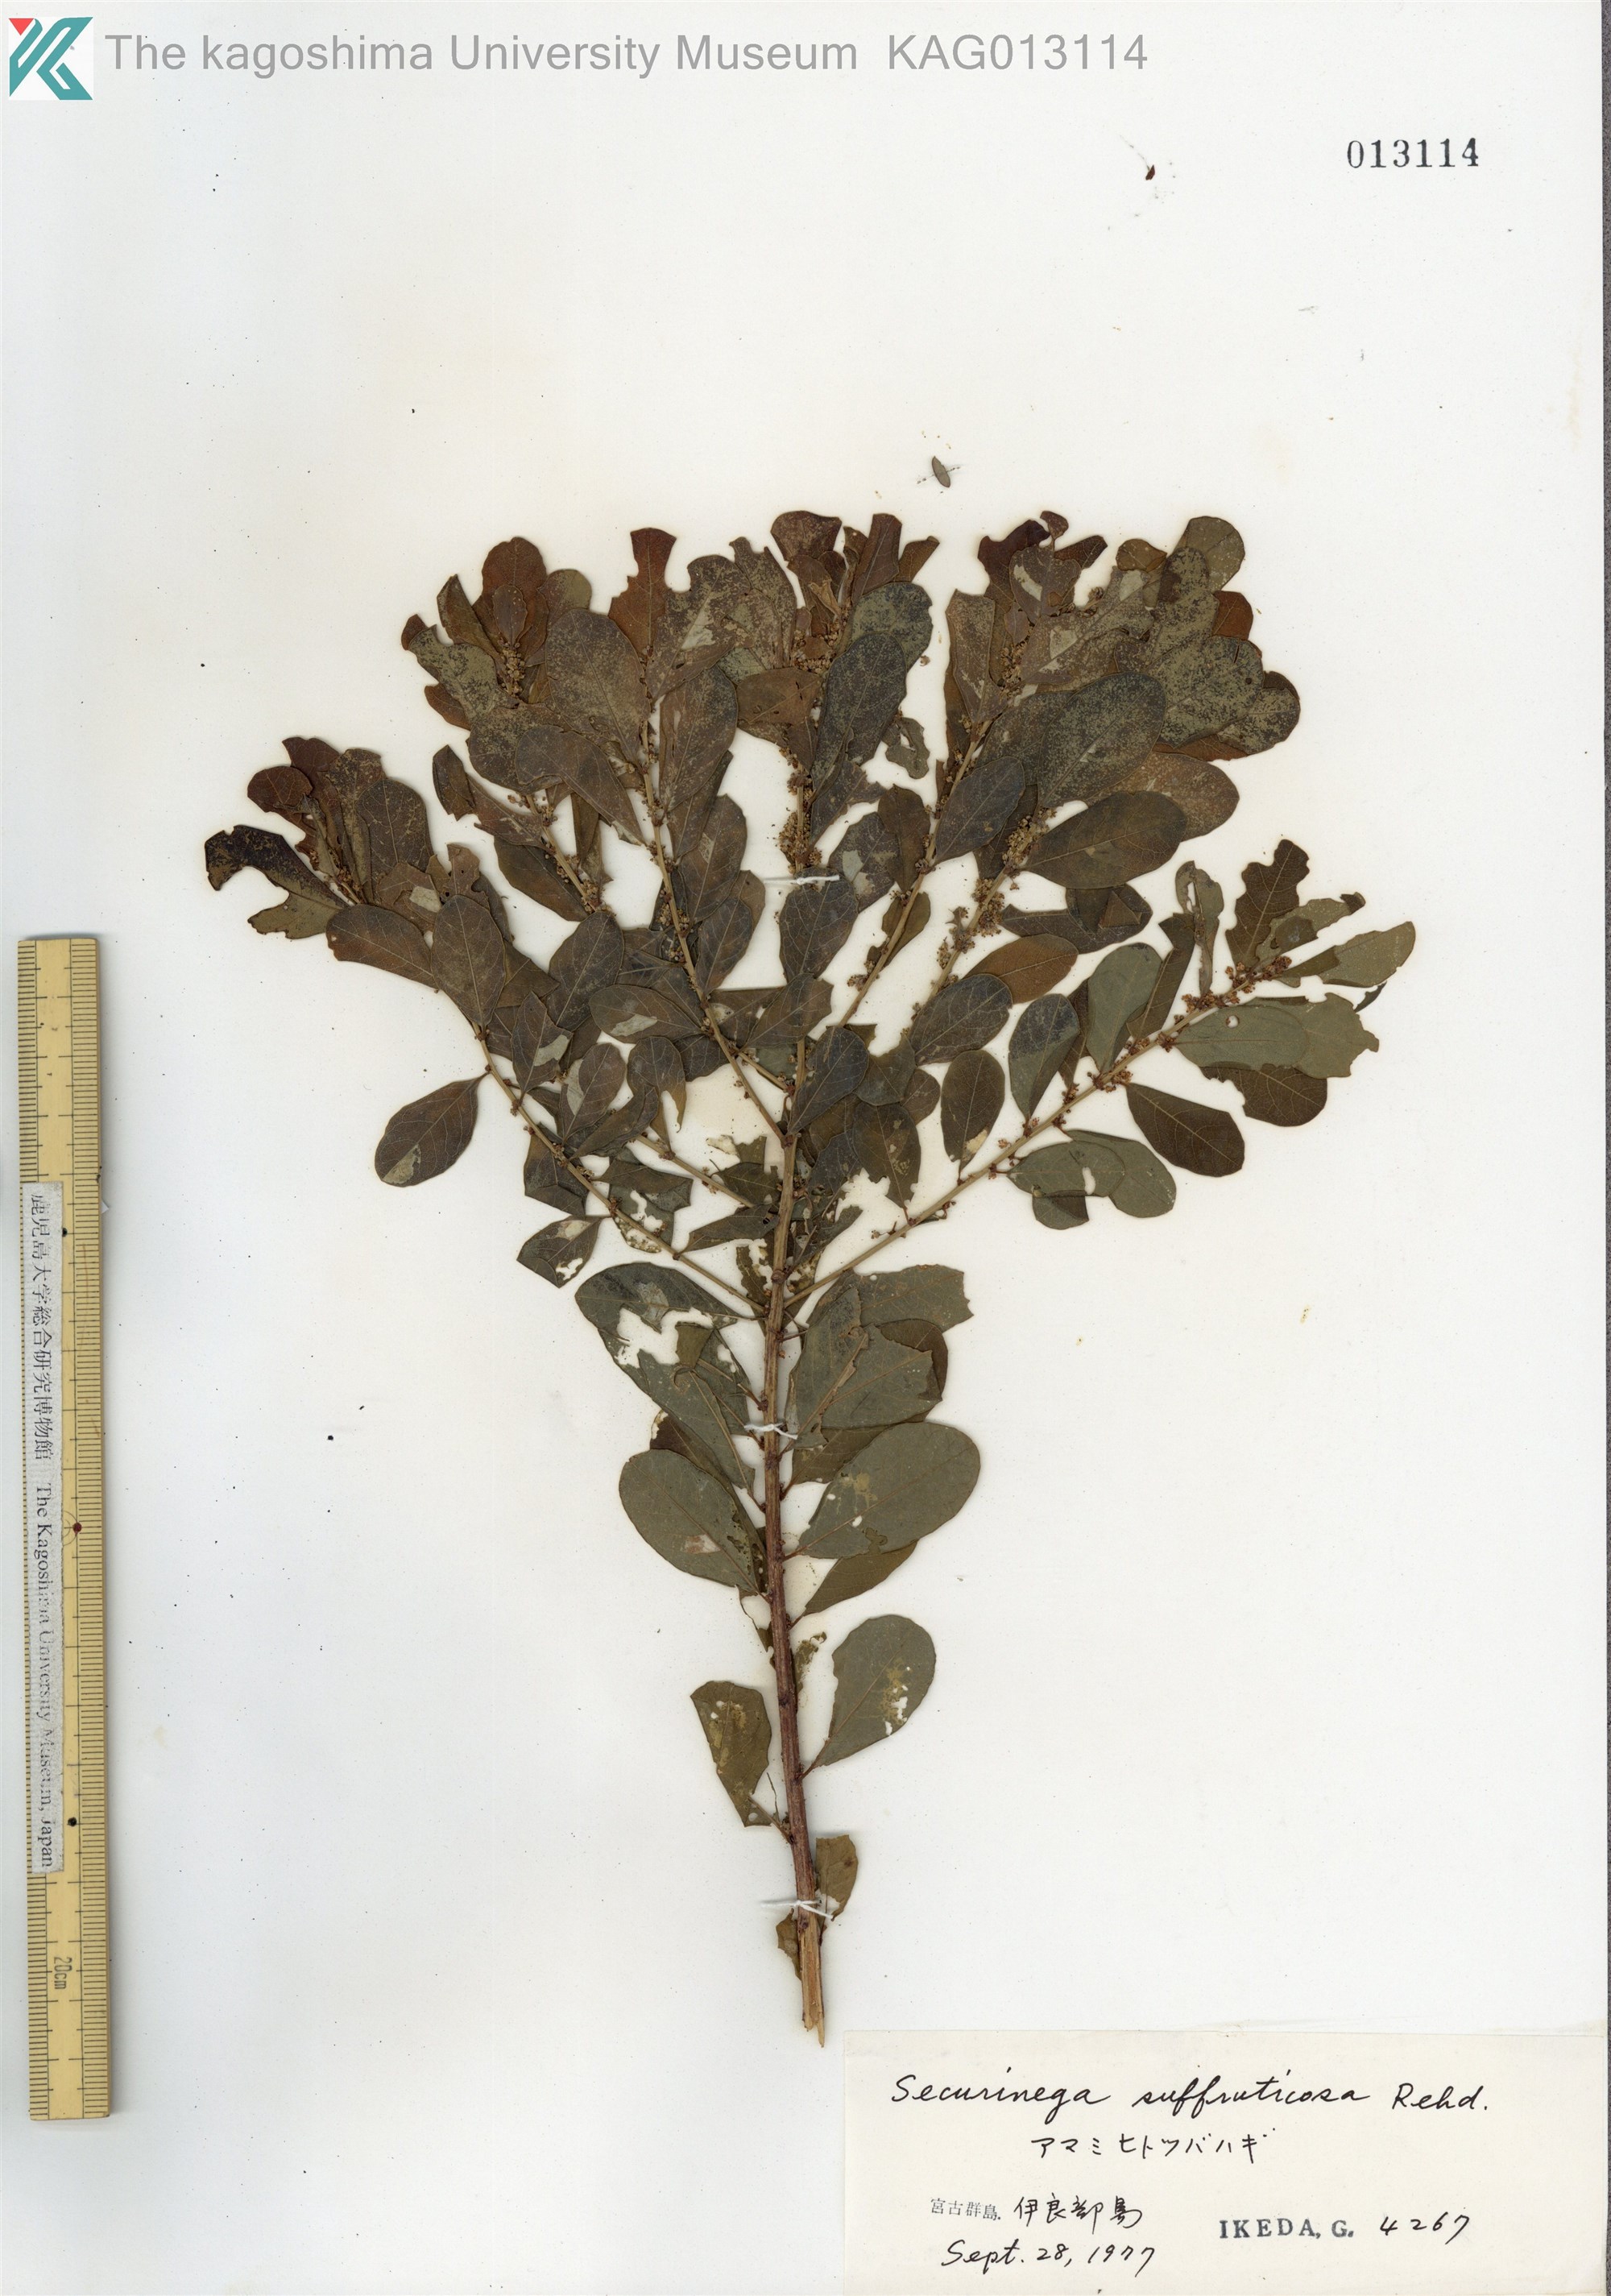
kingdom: Plantae
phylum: Tracheophyta
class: Magnoliopsida
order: Malpighiales
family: Phyllanthaceae
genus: Flueggea
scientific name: Flueggea suffruticosa
